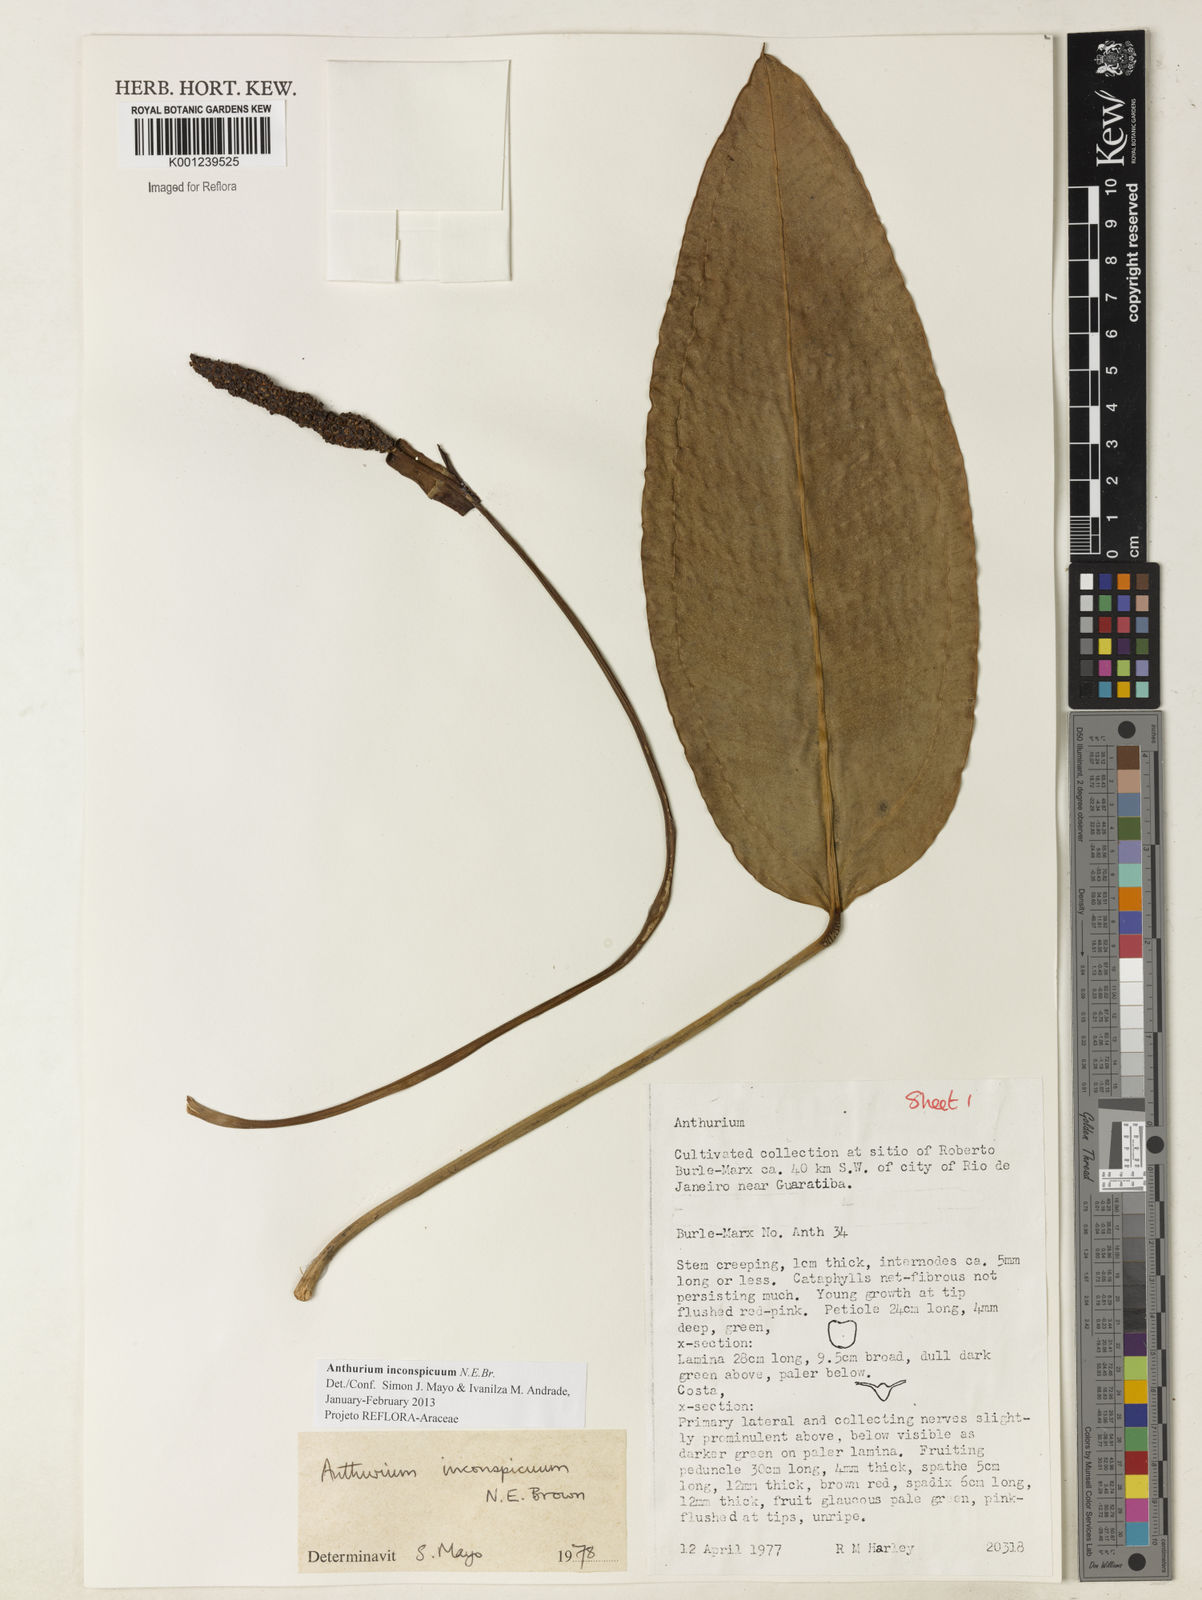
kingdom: Plantae
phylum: Tracheophyta
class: Liliopsida
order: Alismatales
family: Araceae
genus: Anthurium
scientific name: Anthurium inconspicuum
